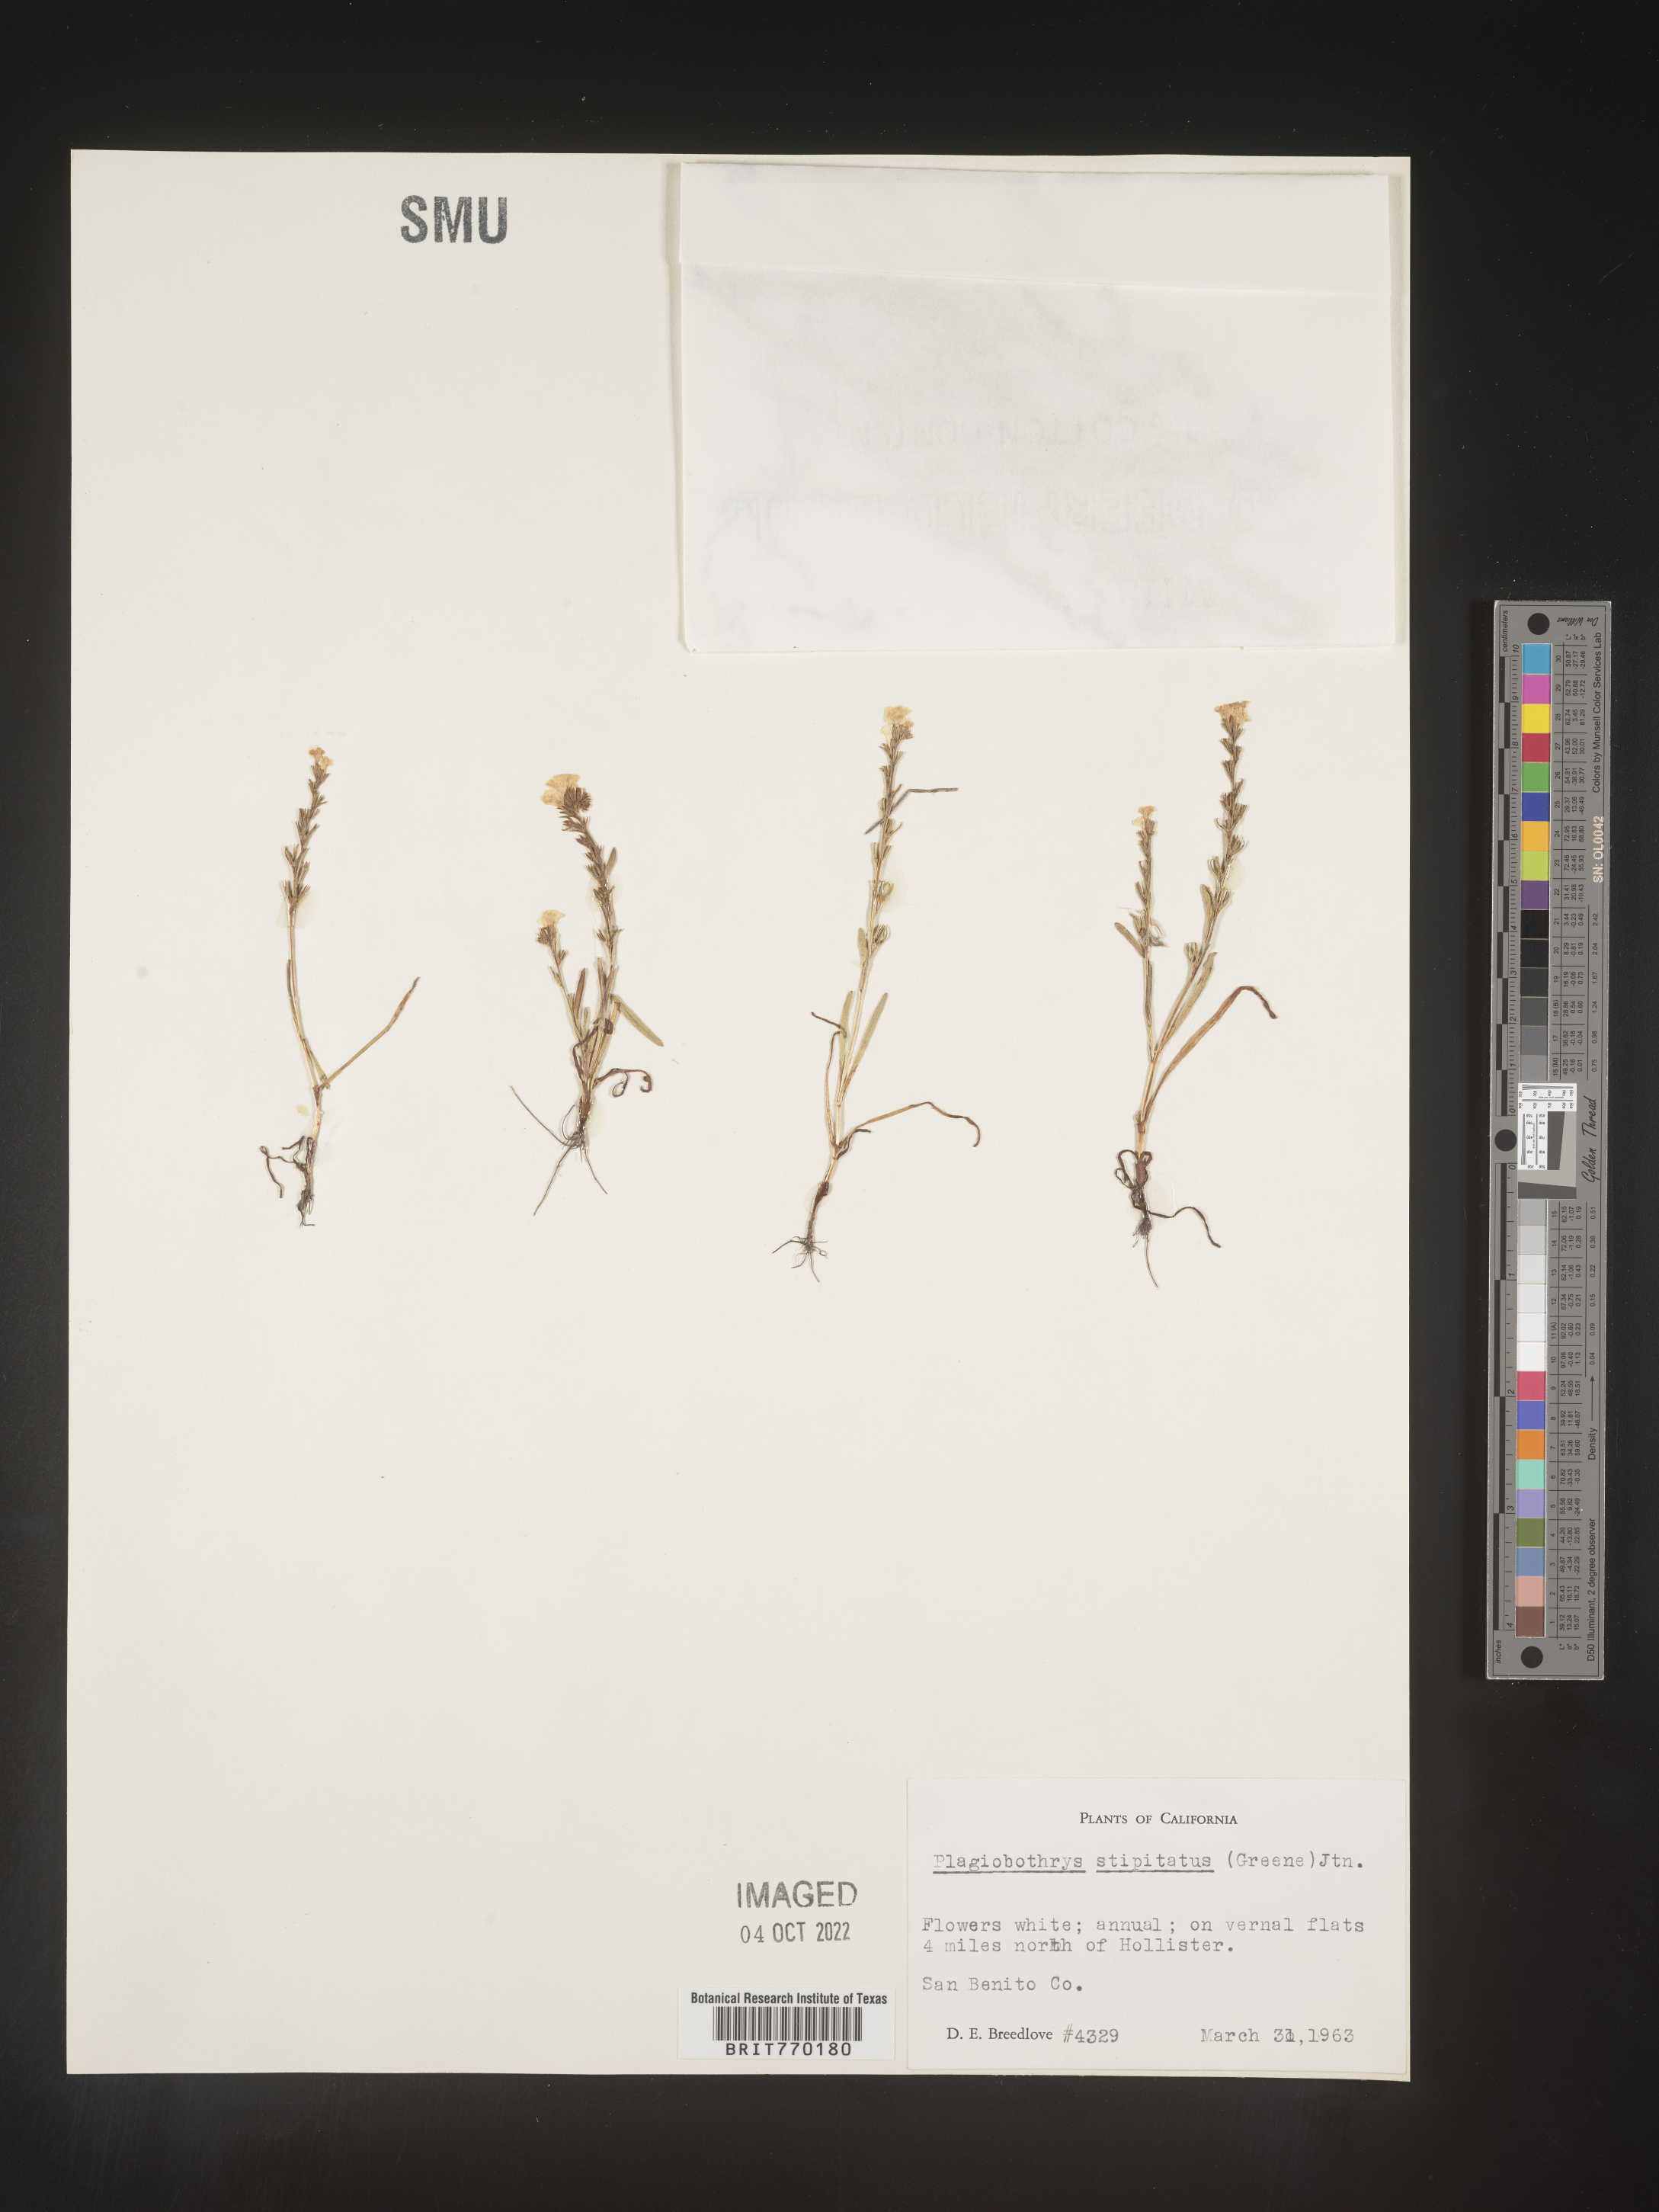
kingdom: Plantae
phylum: Tracheophyta
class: Magnoliopsida
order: Boraginales
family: Boraginaceae
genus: Plagiobothrys
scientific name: Plagiobothrys
